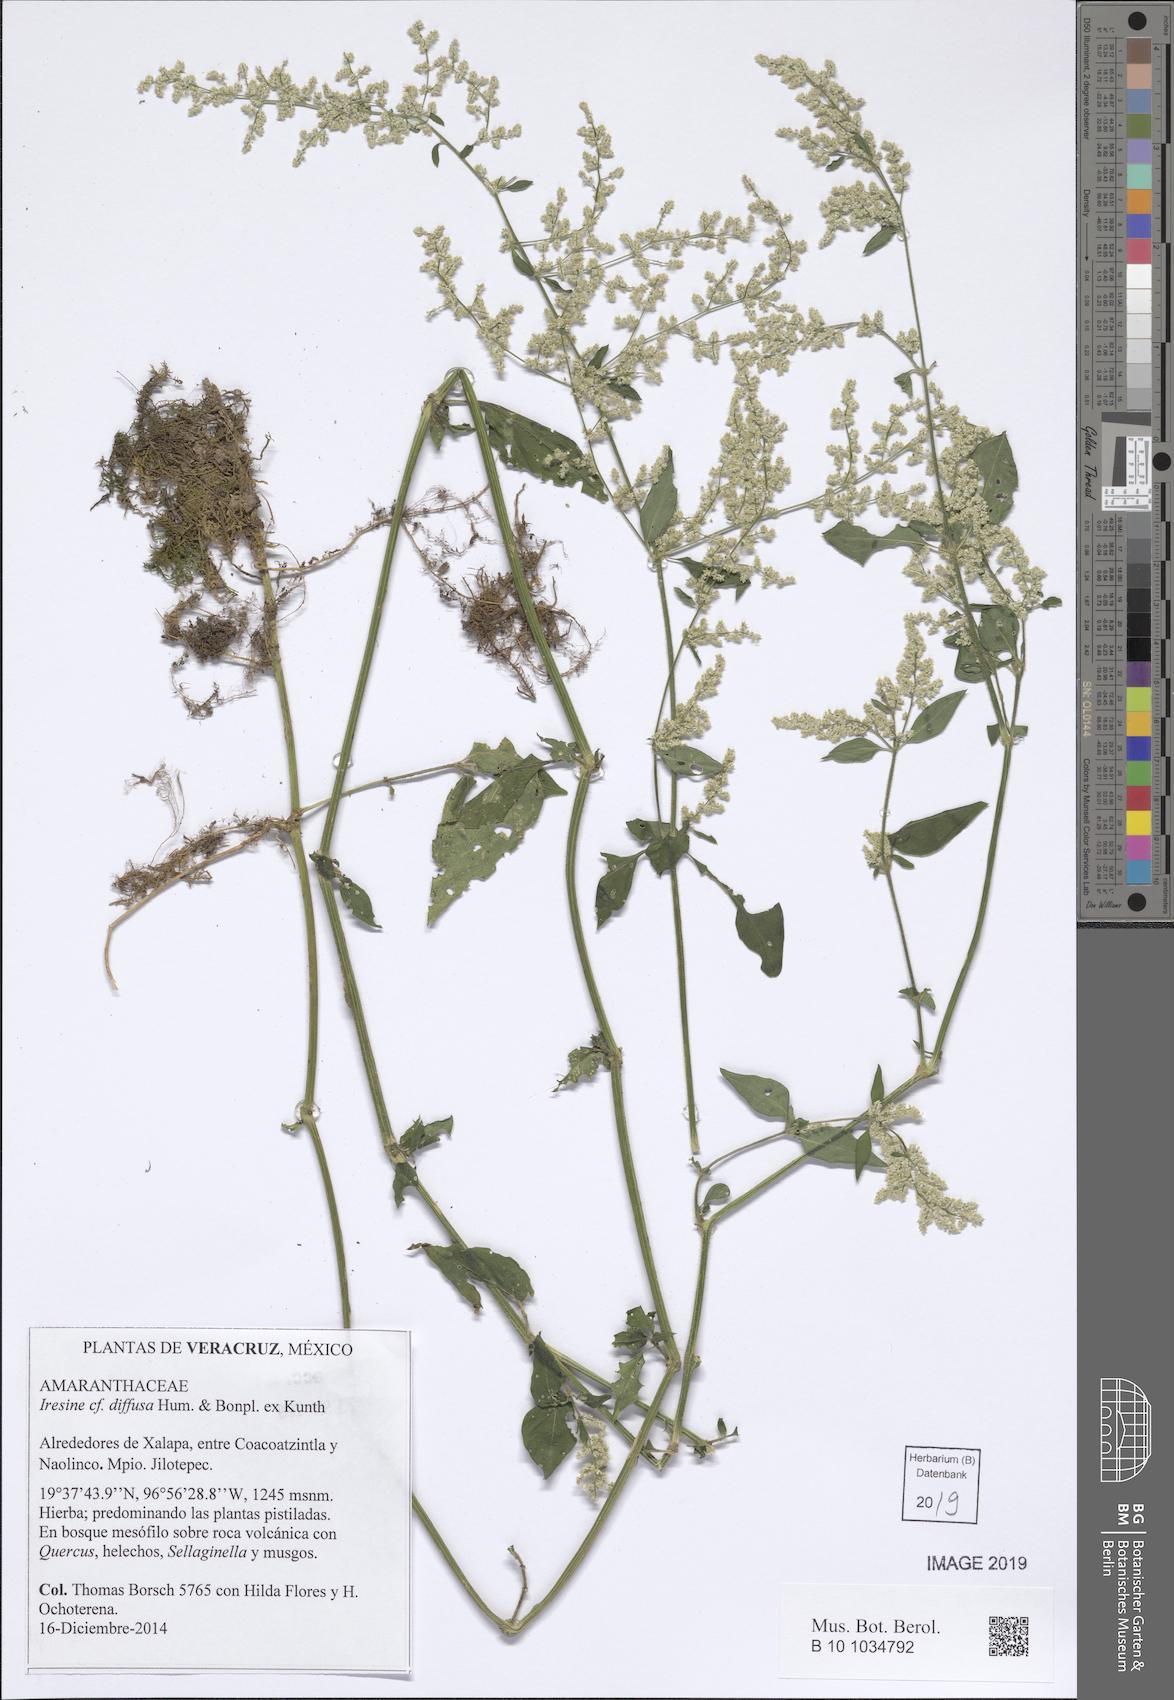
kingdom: Plantae
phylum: Tracheophyta
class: Magnoliopsida
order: Caryophyllales
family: Amaranthaceae
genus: Iresine
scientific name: Iresine diffusa
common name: Juba's-bush
